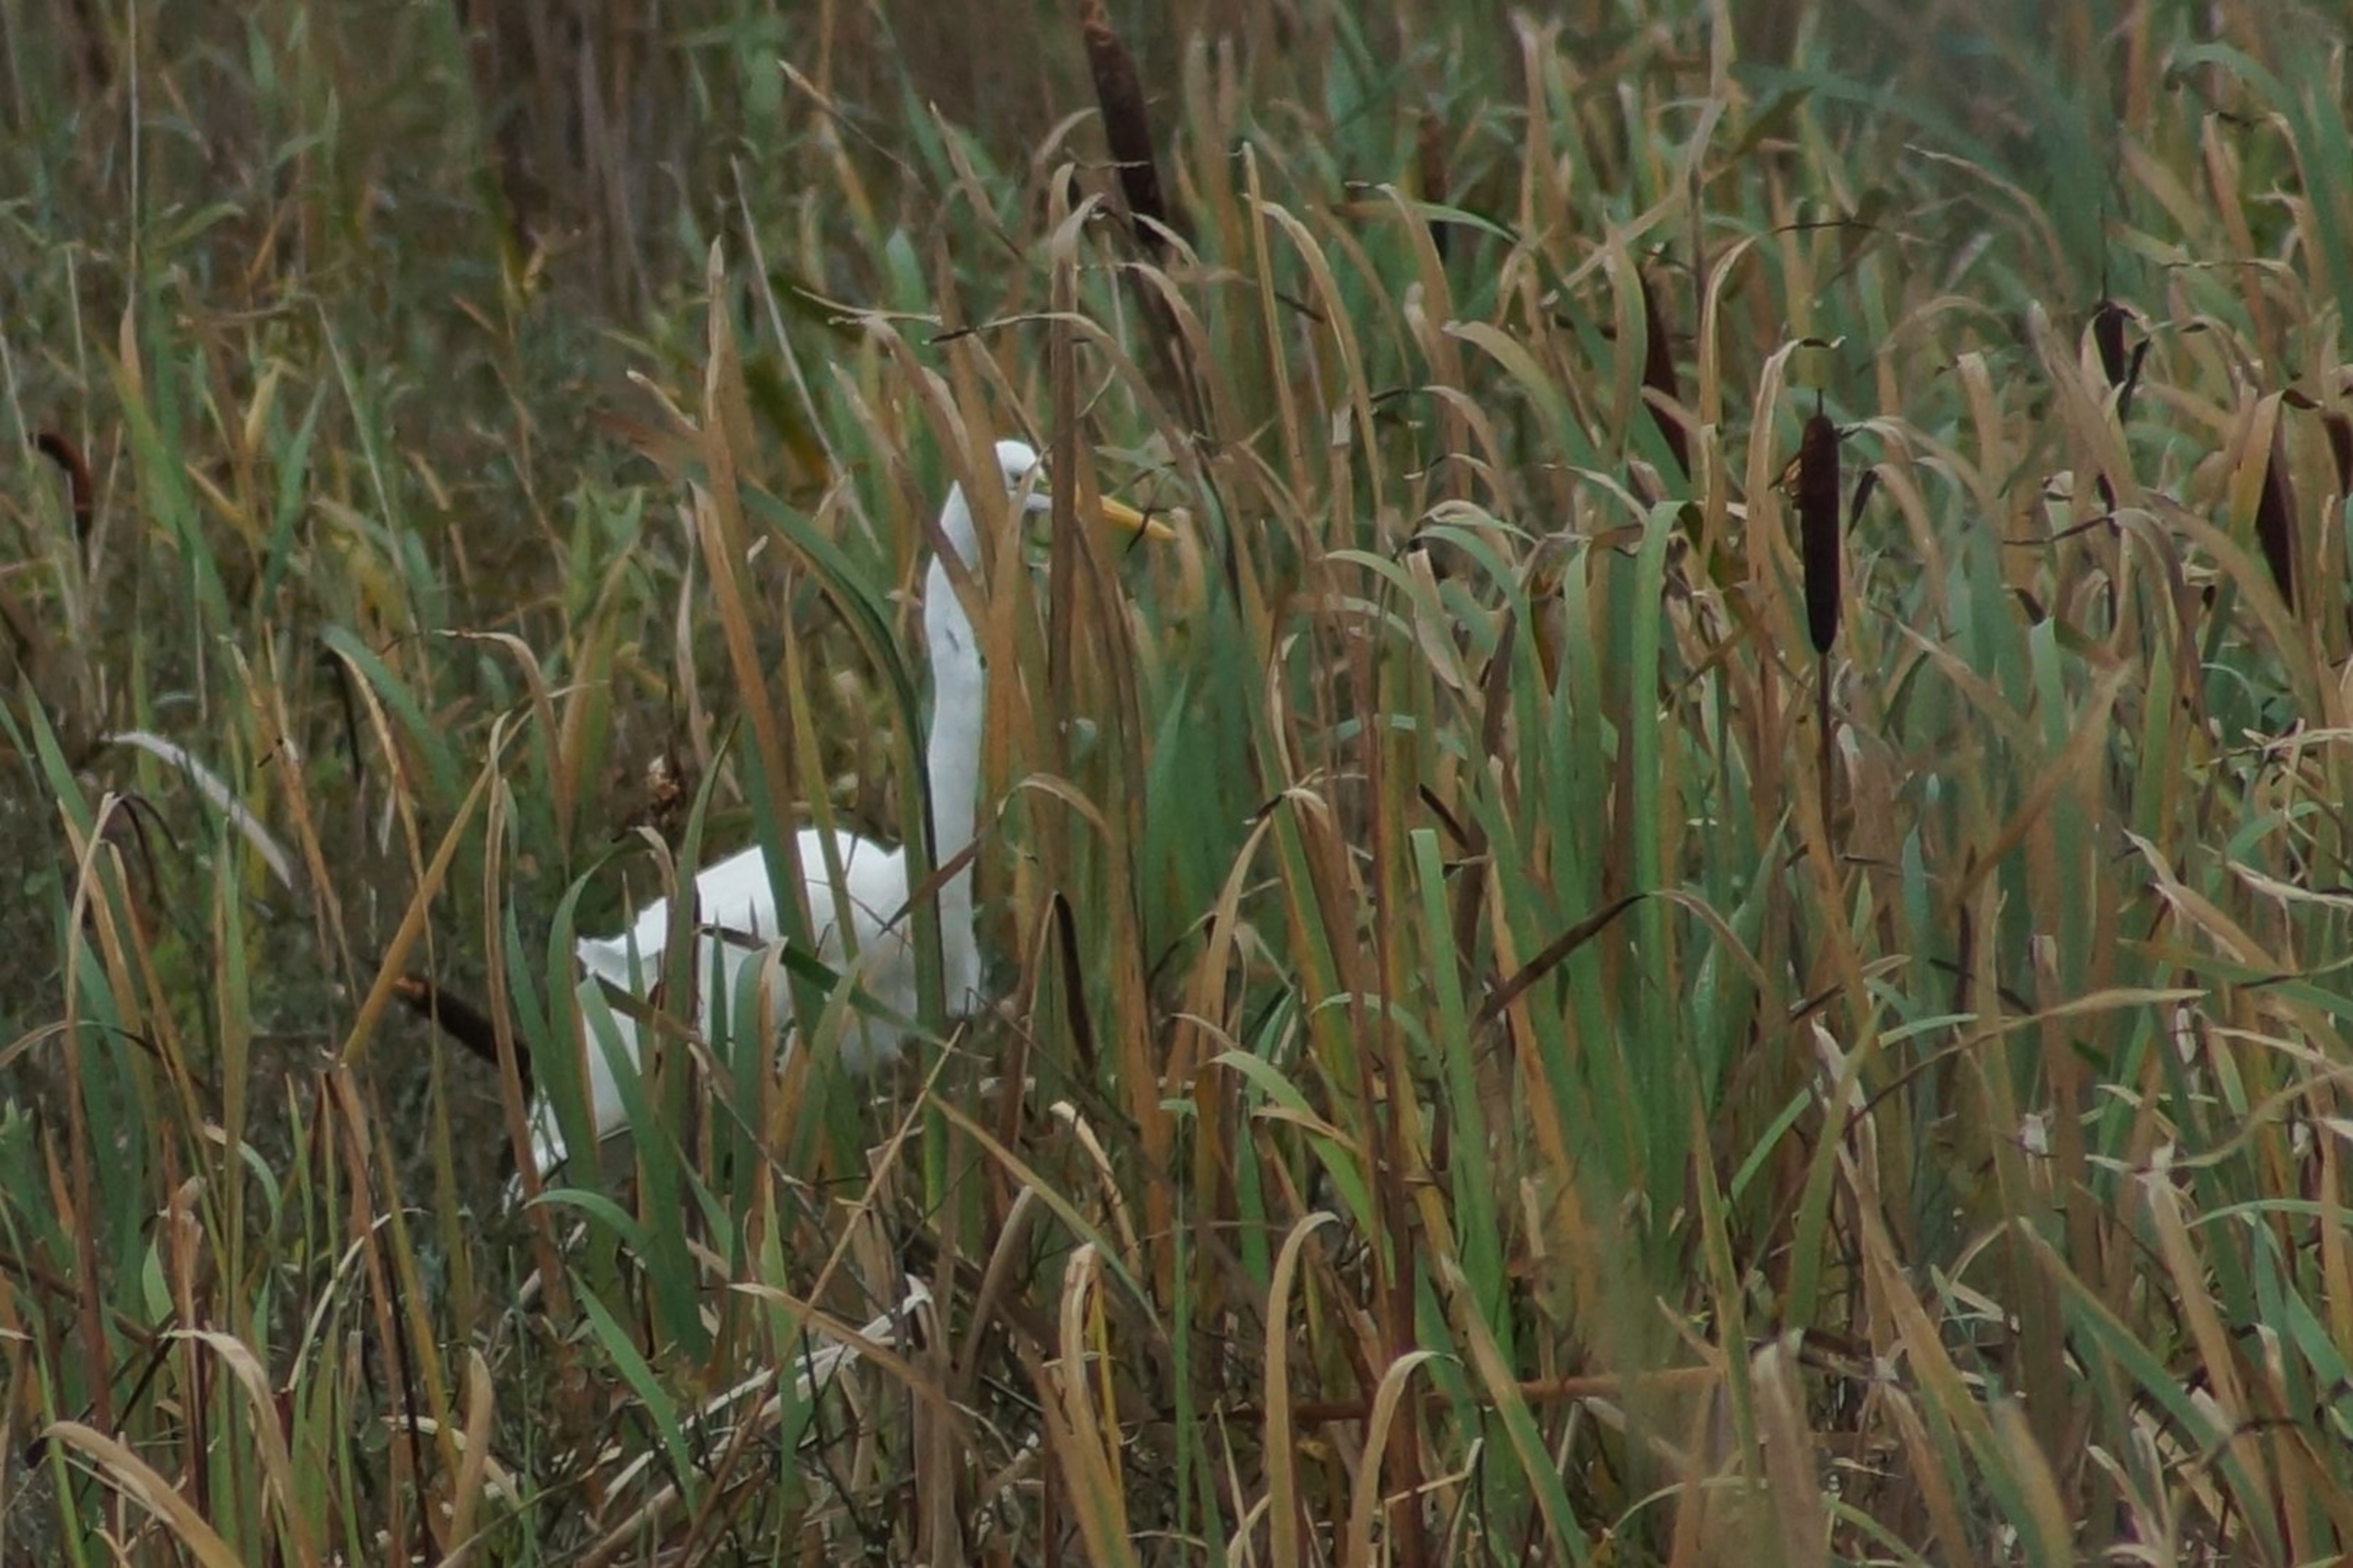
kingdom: Animalia
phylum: Chordata
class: Aves
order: Pelecaniformes
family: Ardeidae
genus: Ardea
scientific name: Ardea alba
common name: Sølvhejre
